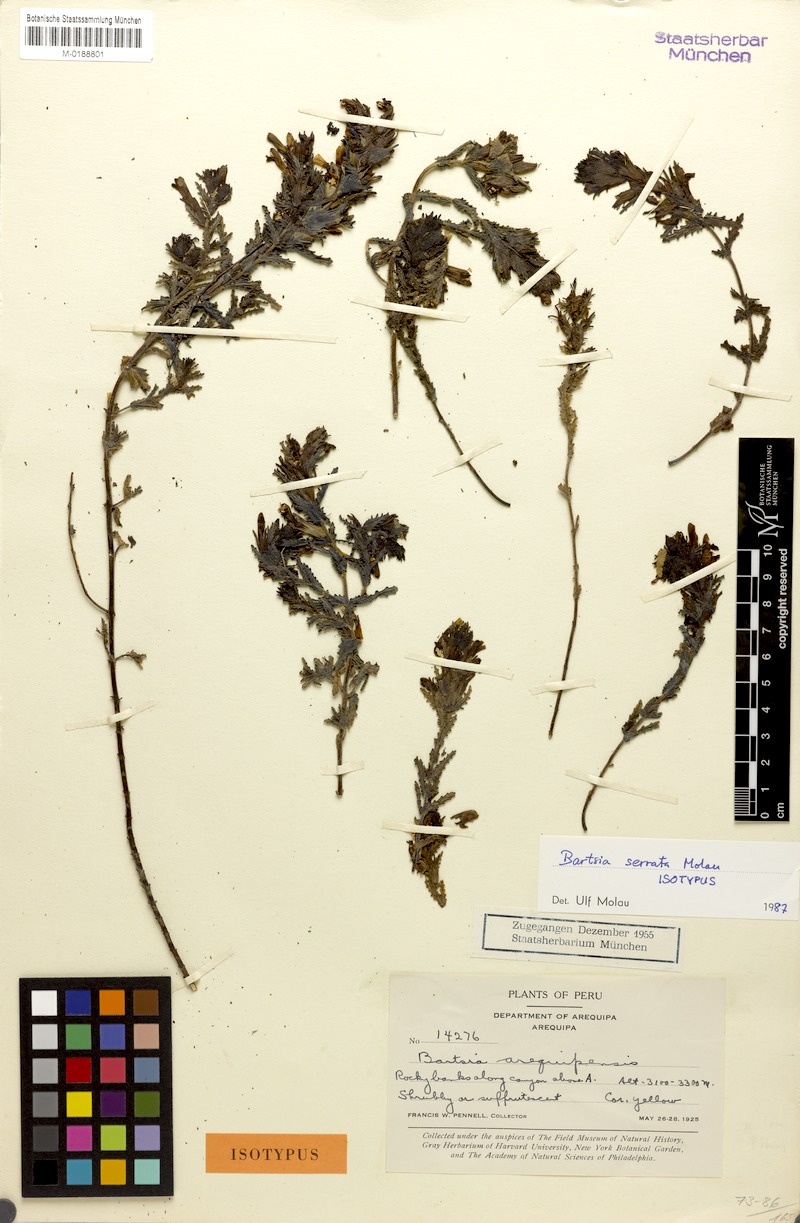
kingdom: Plantae
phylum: Tracheophyta
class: Magnoliopsida
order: Lamiales
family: Orobanchaceae
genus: Neobartsia
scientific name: Neobartsia serrata
